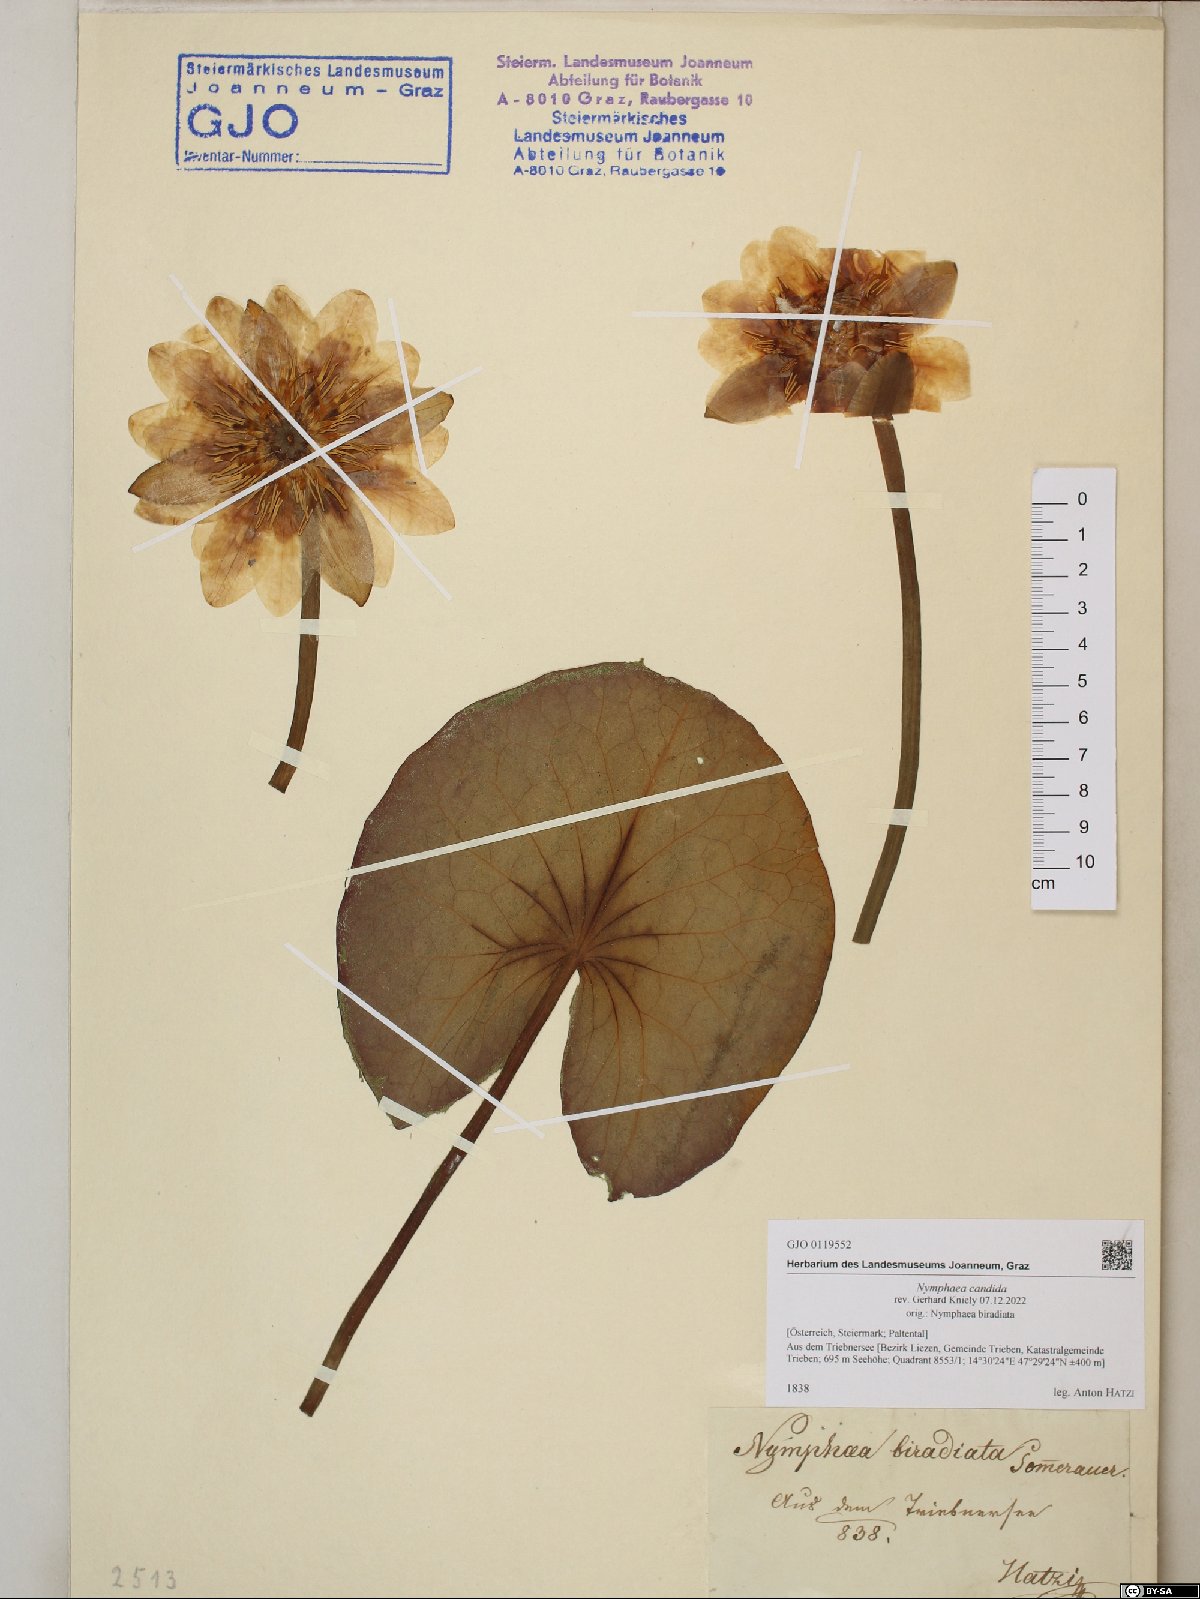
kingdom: Plantae
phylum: Tracheophyta
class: Magnoliopsida
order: Nymphaeales
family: Nymphaeaceae
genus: Nymphaea
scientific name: Nymphaea candida
